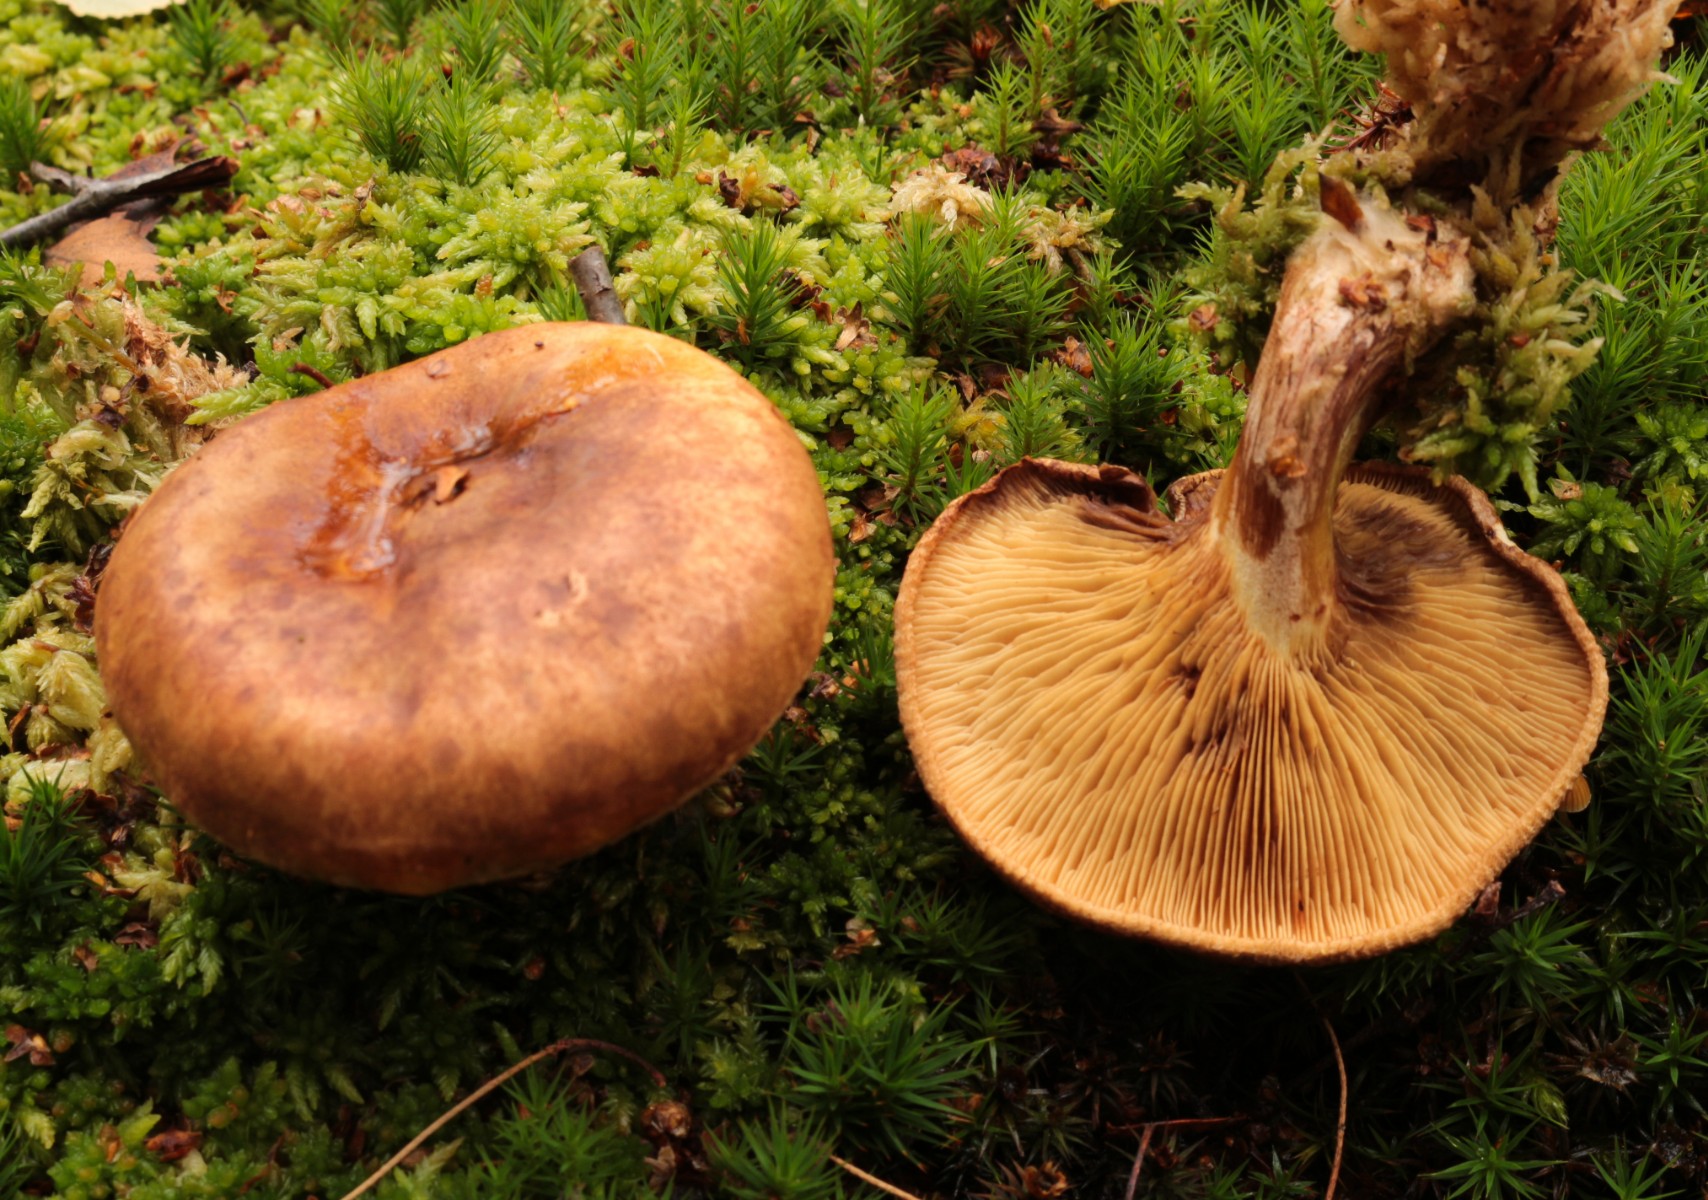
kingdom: Fungi
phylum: Basidiomycota
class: Agaricomycetes
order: Boletales
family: Paxillaceae
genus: Paxillus
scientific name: Paxillus
